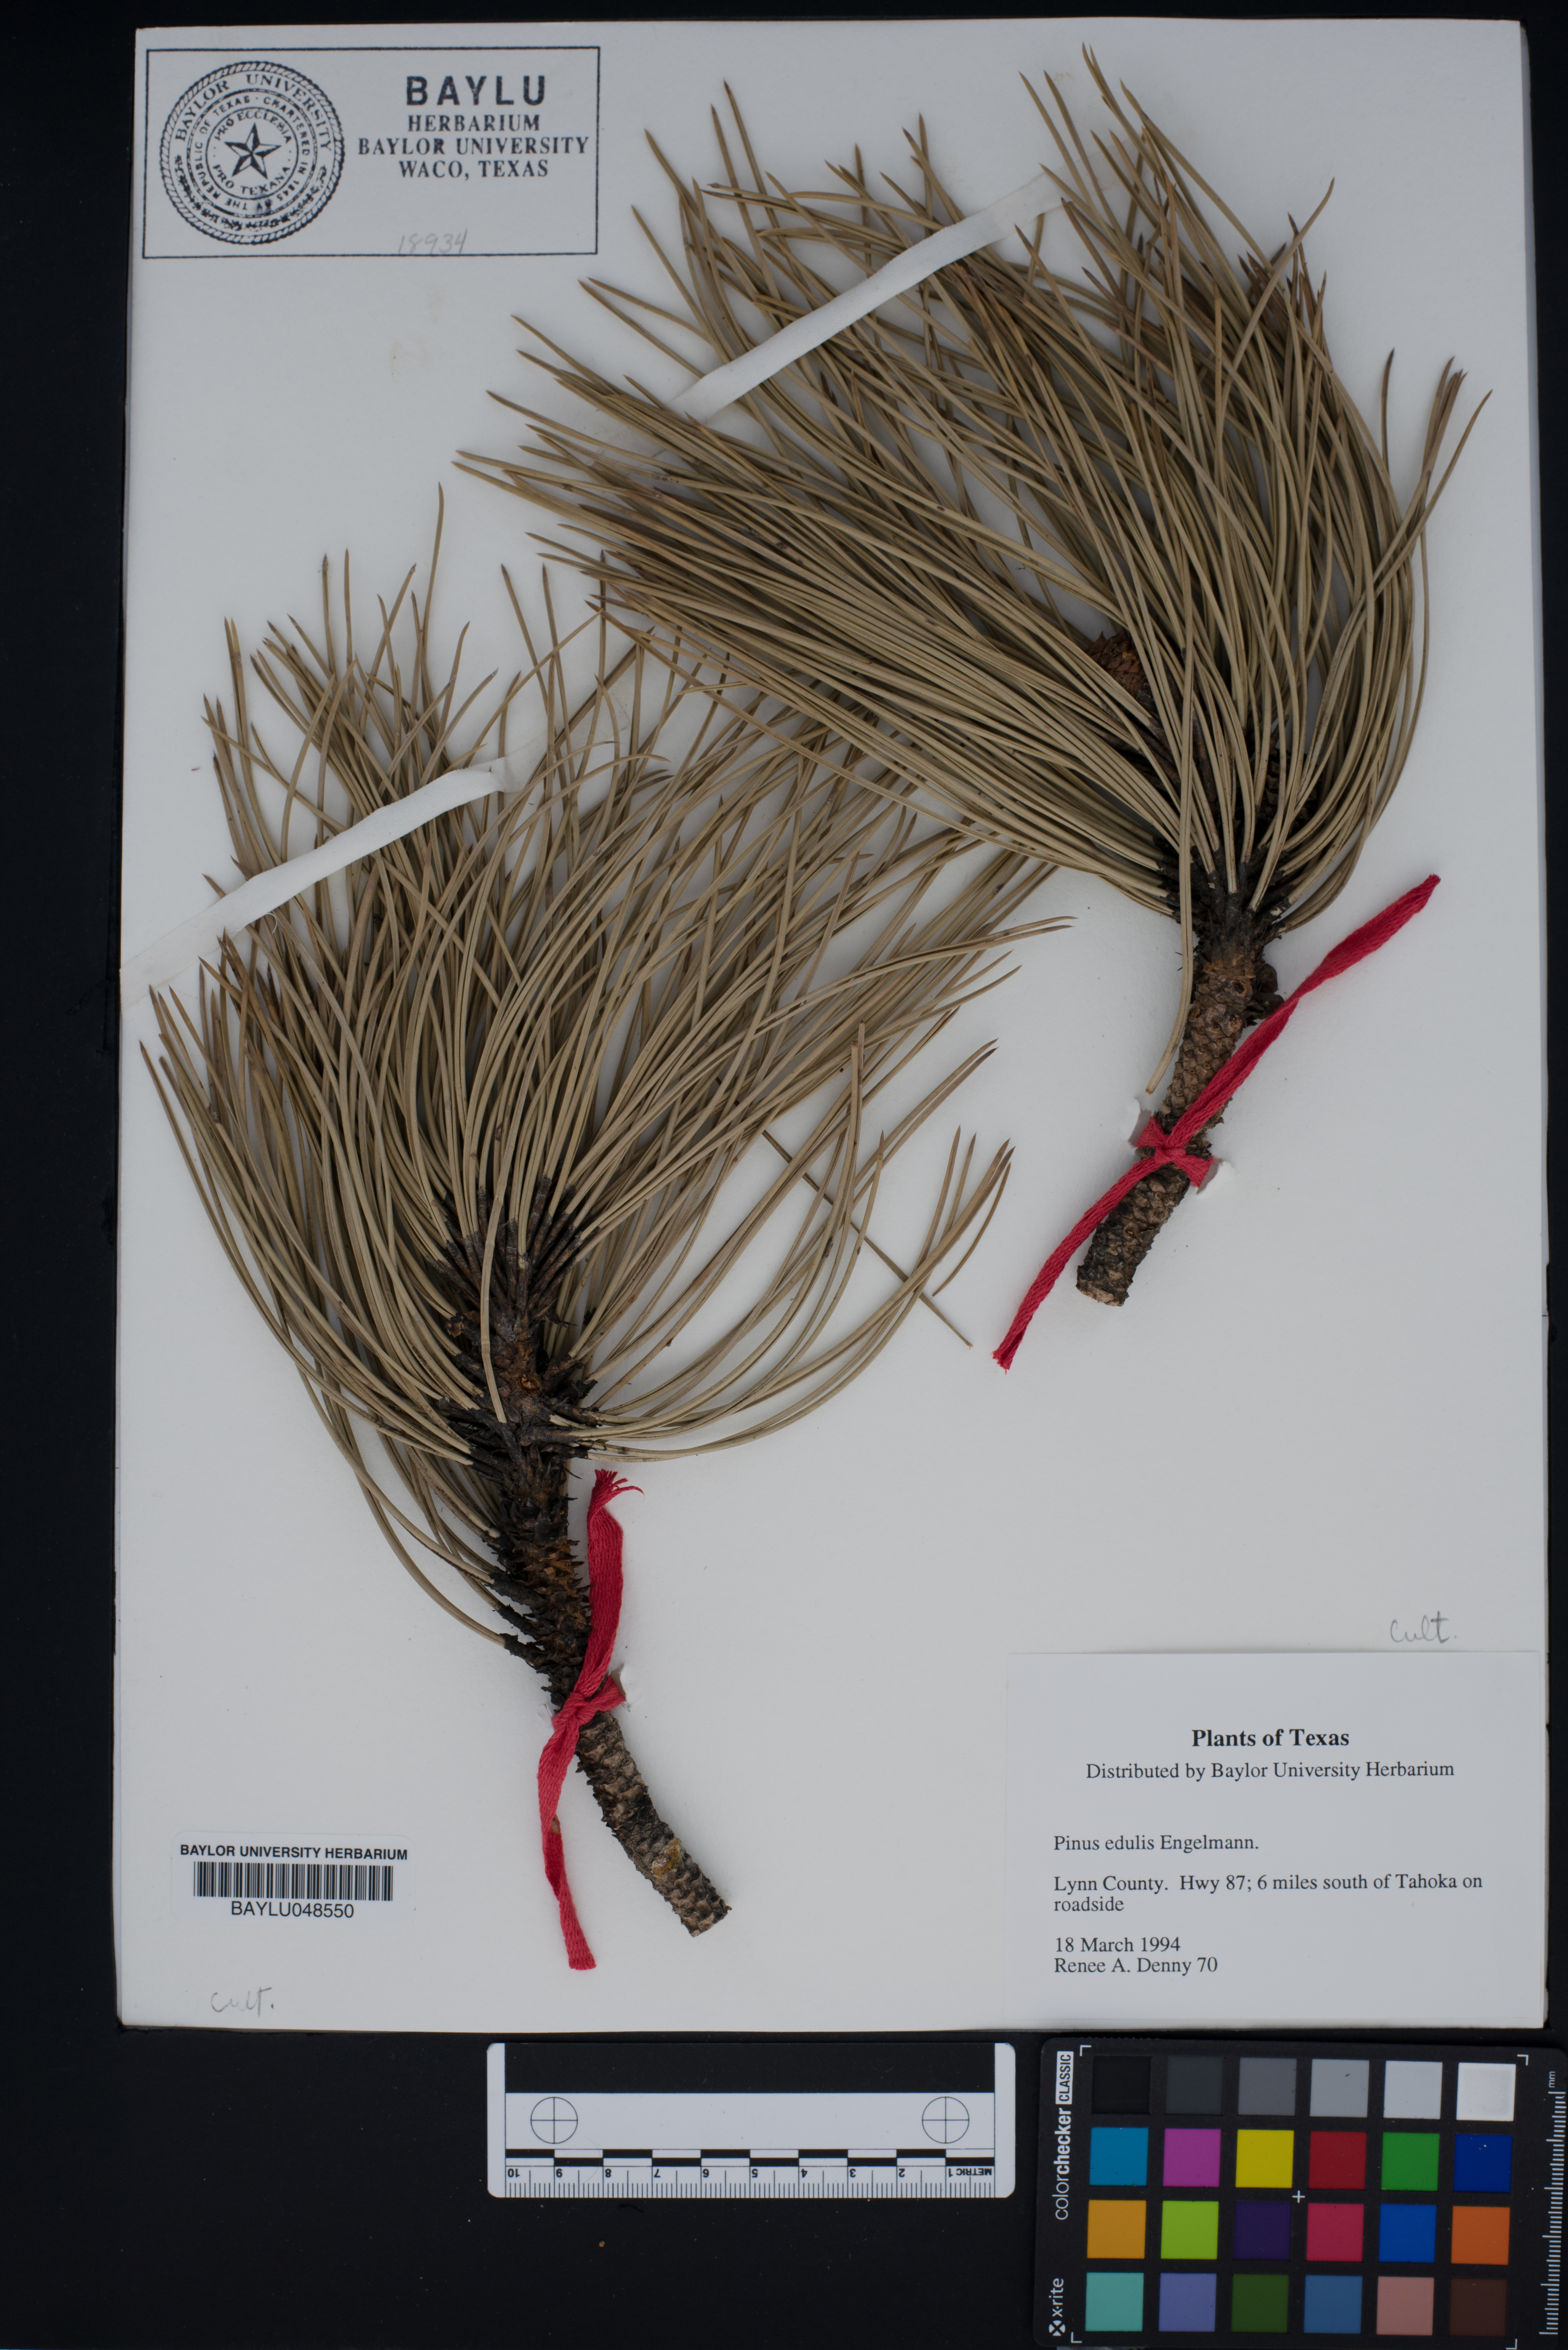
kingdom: Plantae
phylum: Tracheophyta
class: Pinopsida
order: Pinales
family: Pinaceae
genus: Pinus
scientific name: Pinus edulis
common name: Colorado pinyon
